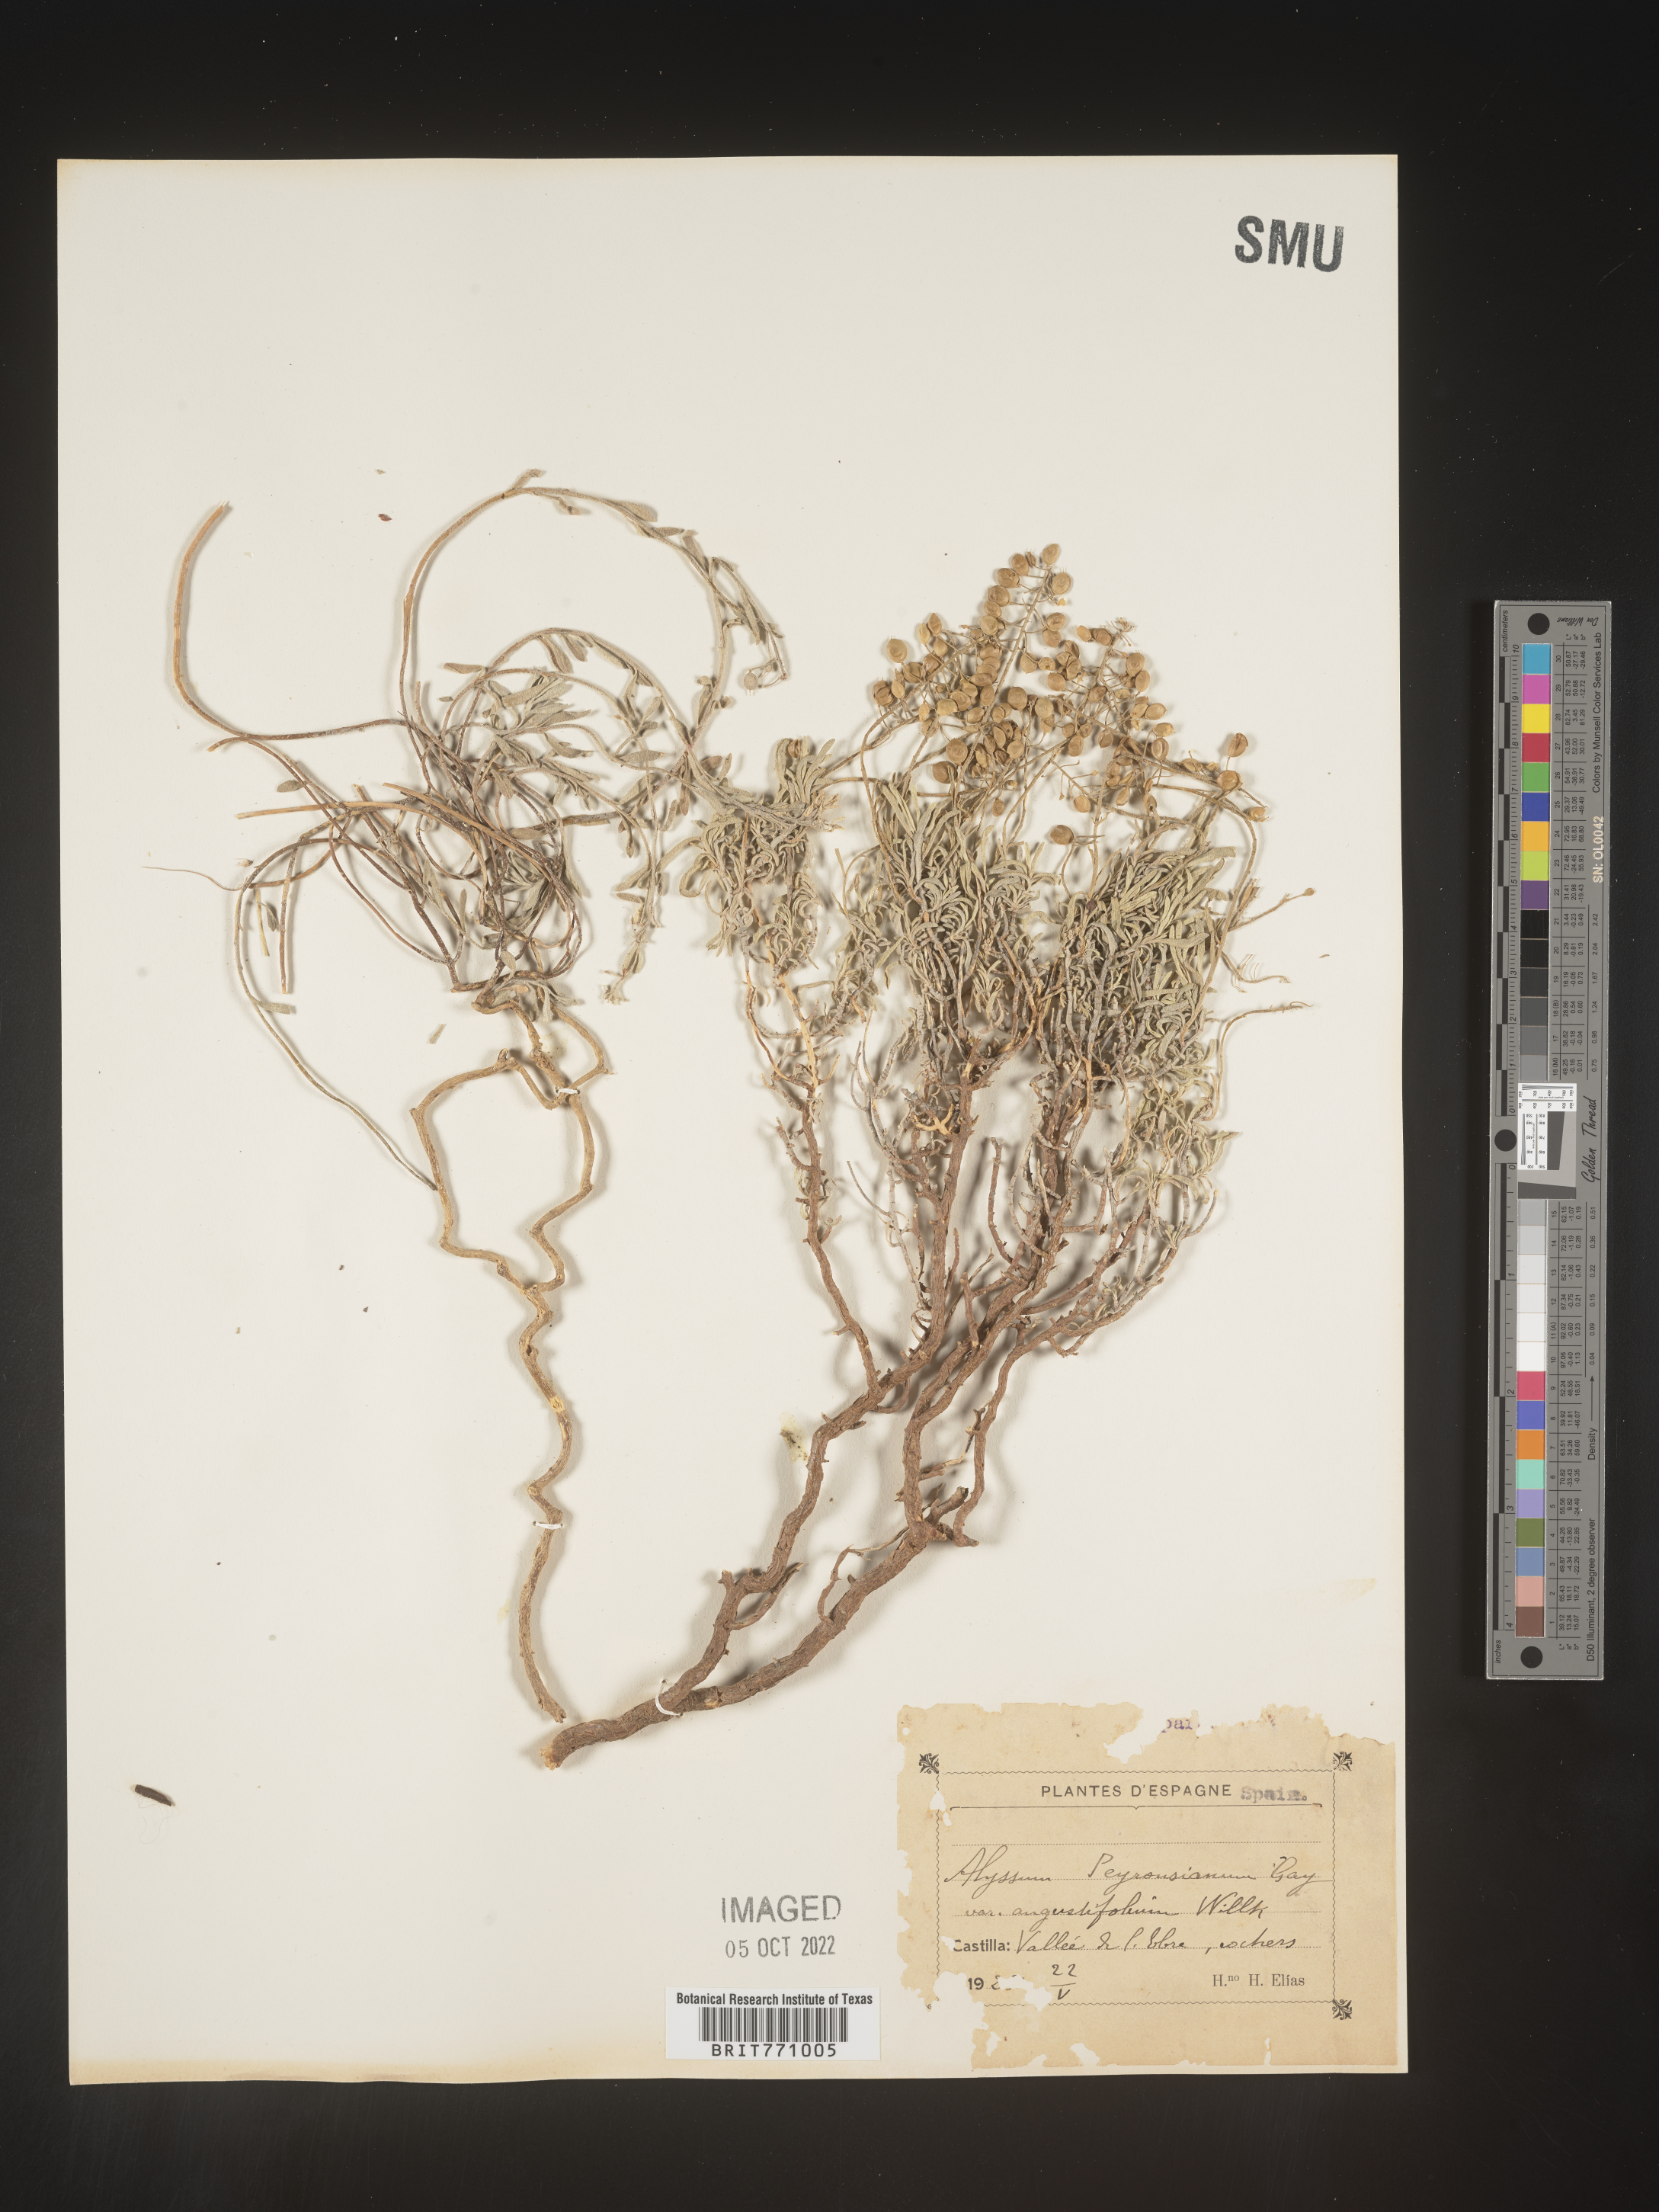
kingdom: Plantae
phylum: Tracheophyta
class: Magnoliopsida
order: Brassicales
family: Brassicaceae
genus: Alyssum
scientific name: Alyssum
